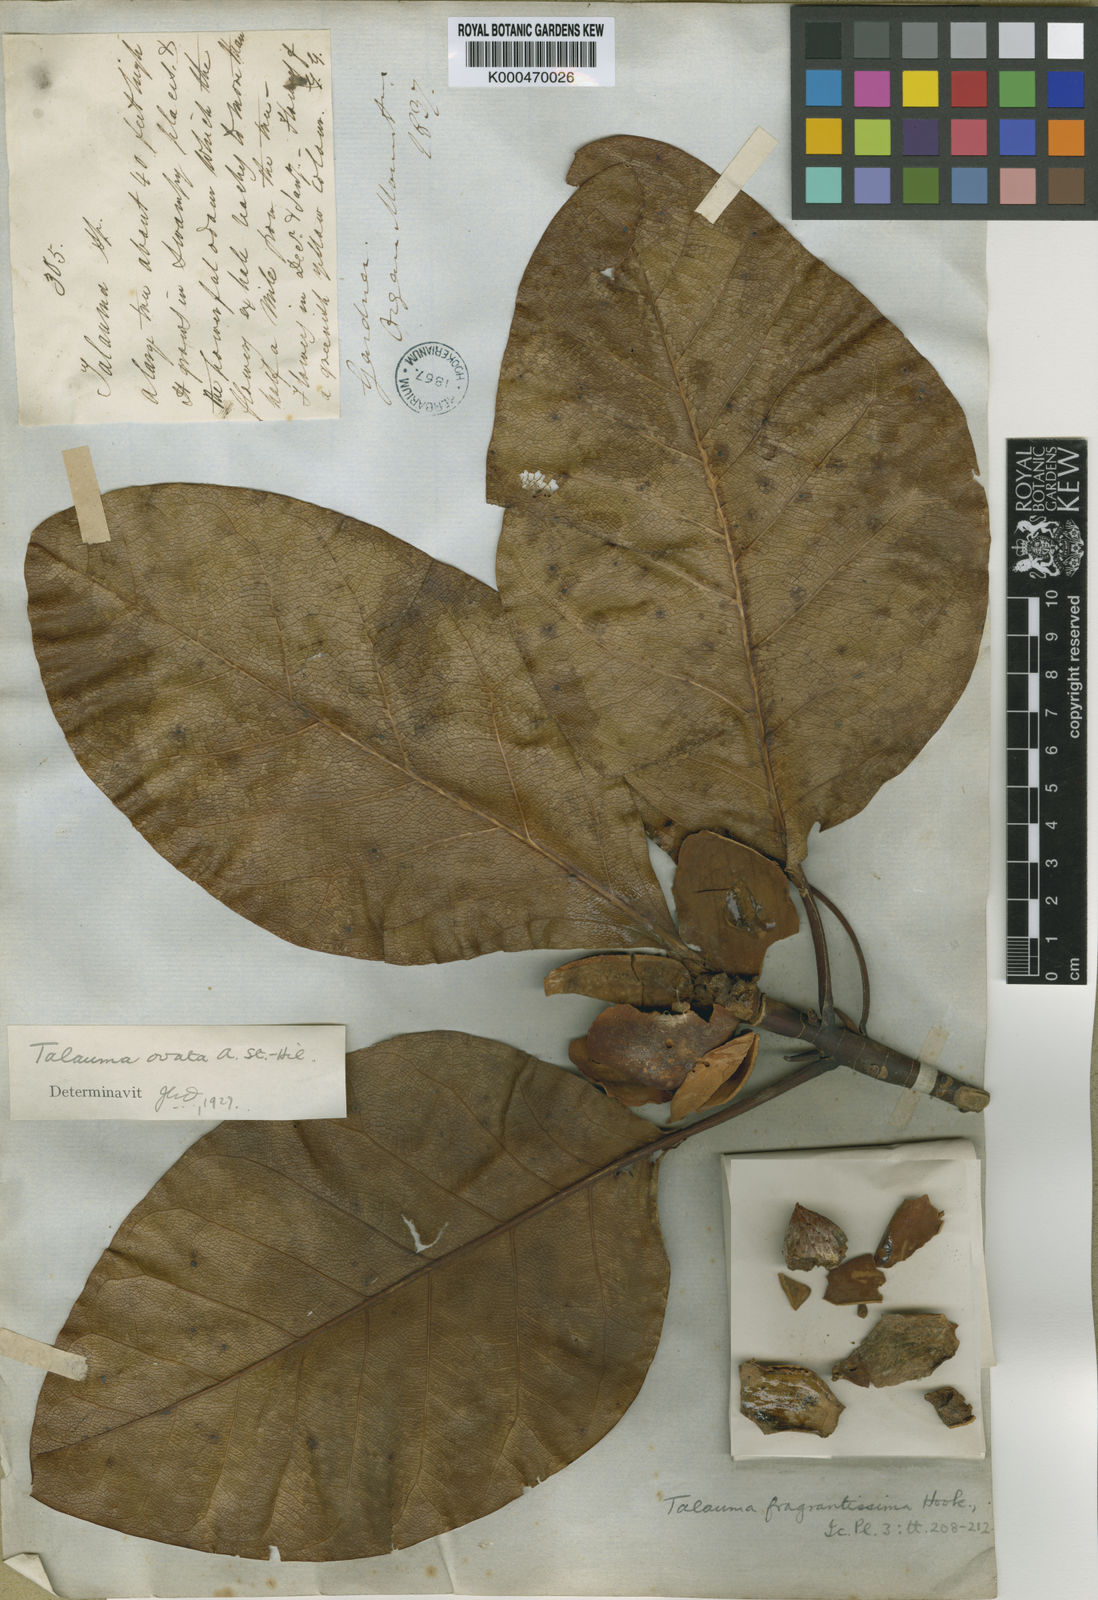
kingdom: Plantae
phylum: Tracheophyta
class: Magnoliopsida
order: Magnoliales
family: Magnoliaceae
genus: Magnolia
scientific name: Magnolia ovata
